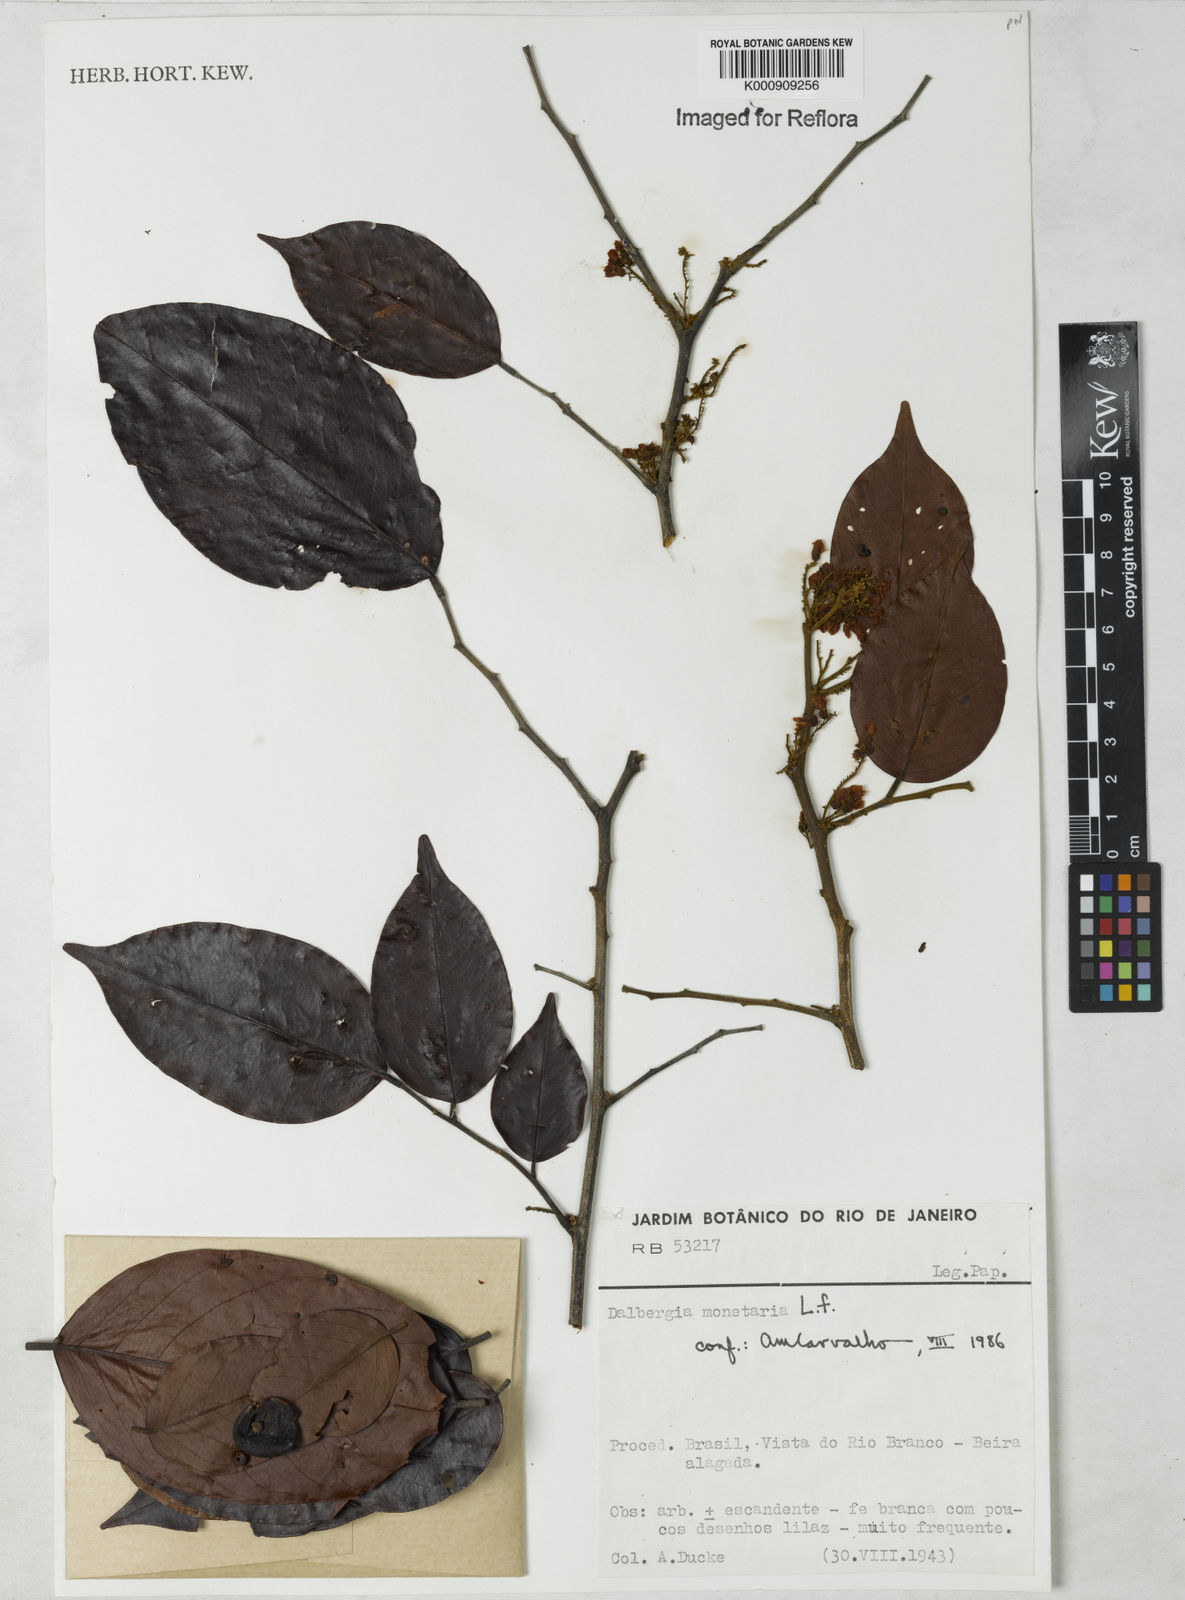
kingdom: Plantae
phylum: Tracheophyta
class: Magnoliopsida
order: Fabales
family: Fabaceae
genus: Dalbergia
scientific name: Dalbergia ovalis
